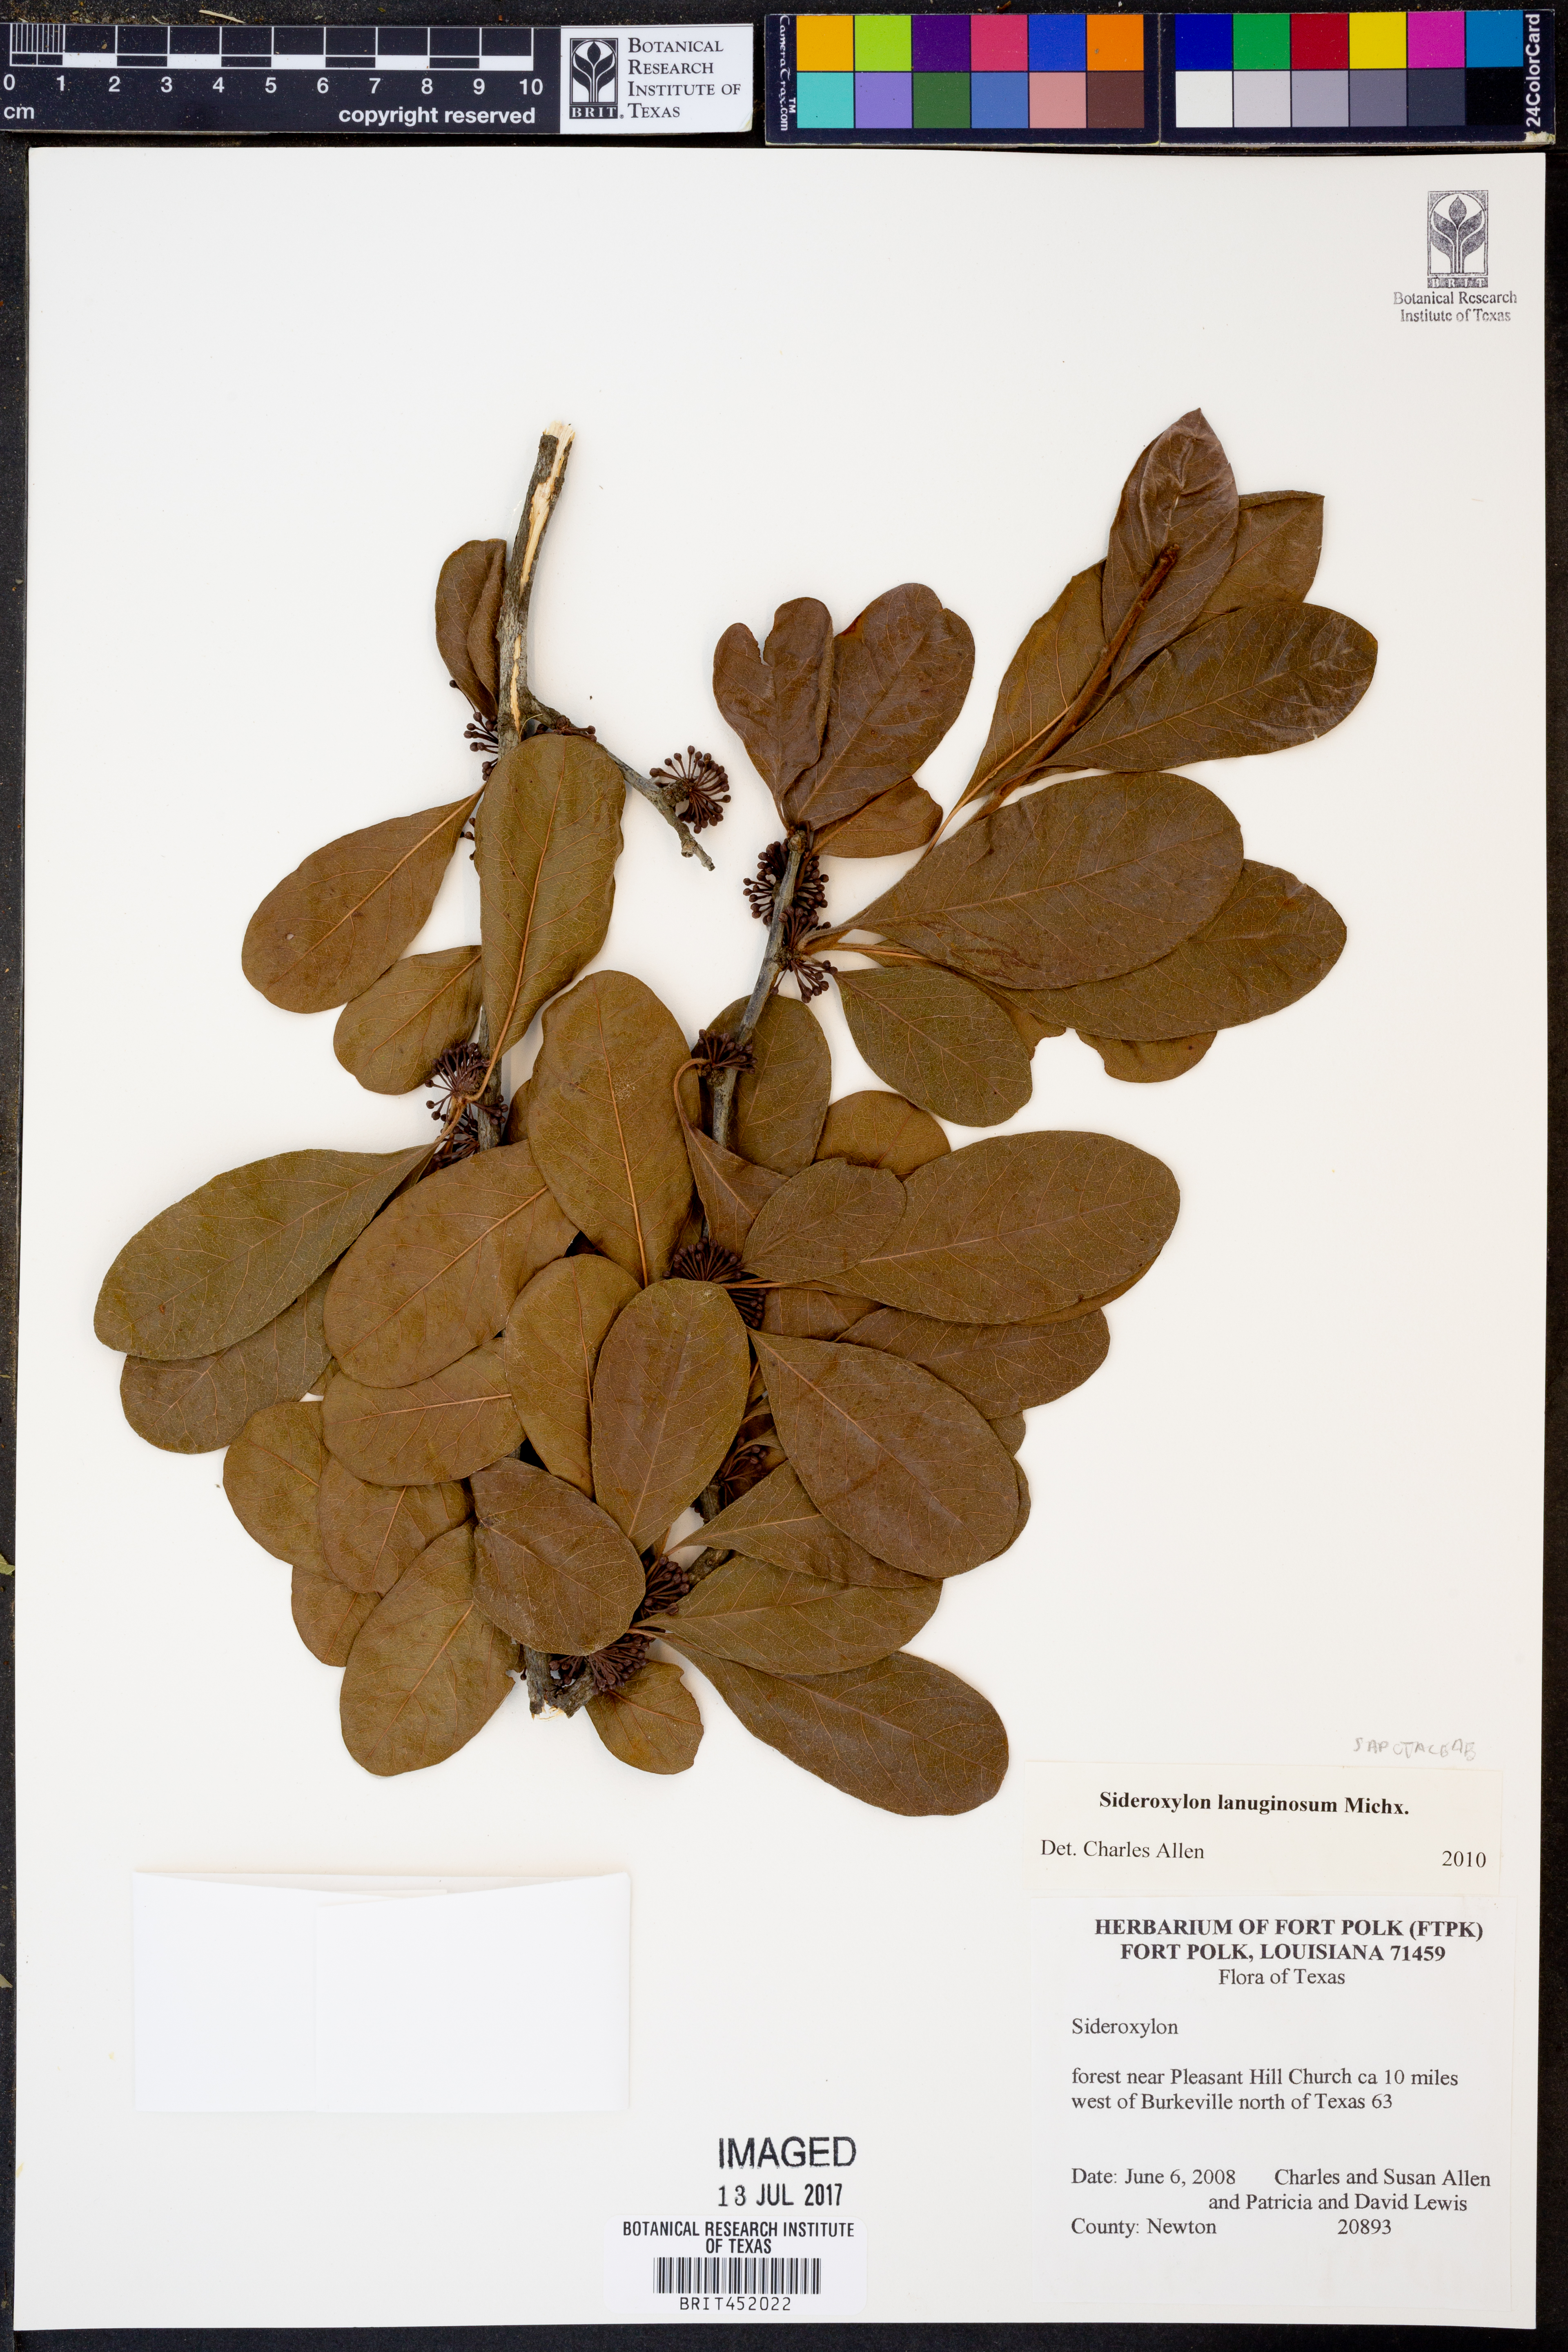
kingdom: Plantae
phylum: Tracheophyta
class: Magnoliopsida
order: Ericales
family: Sapotaceae
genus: Sideroxylon
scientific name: Sideroxylon lanuginosum
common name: Chittamwood
